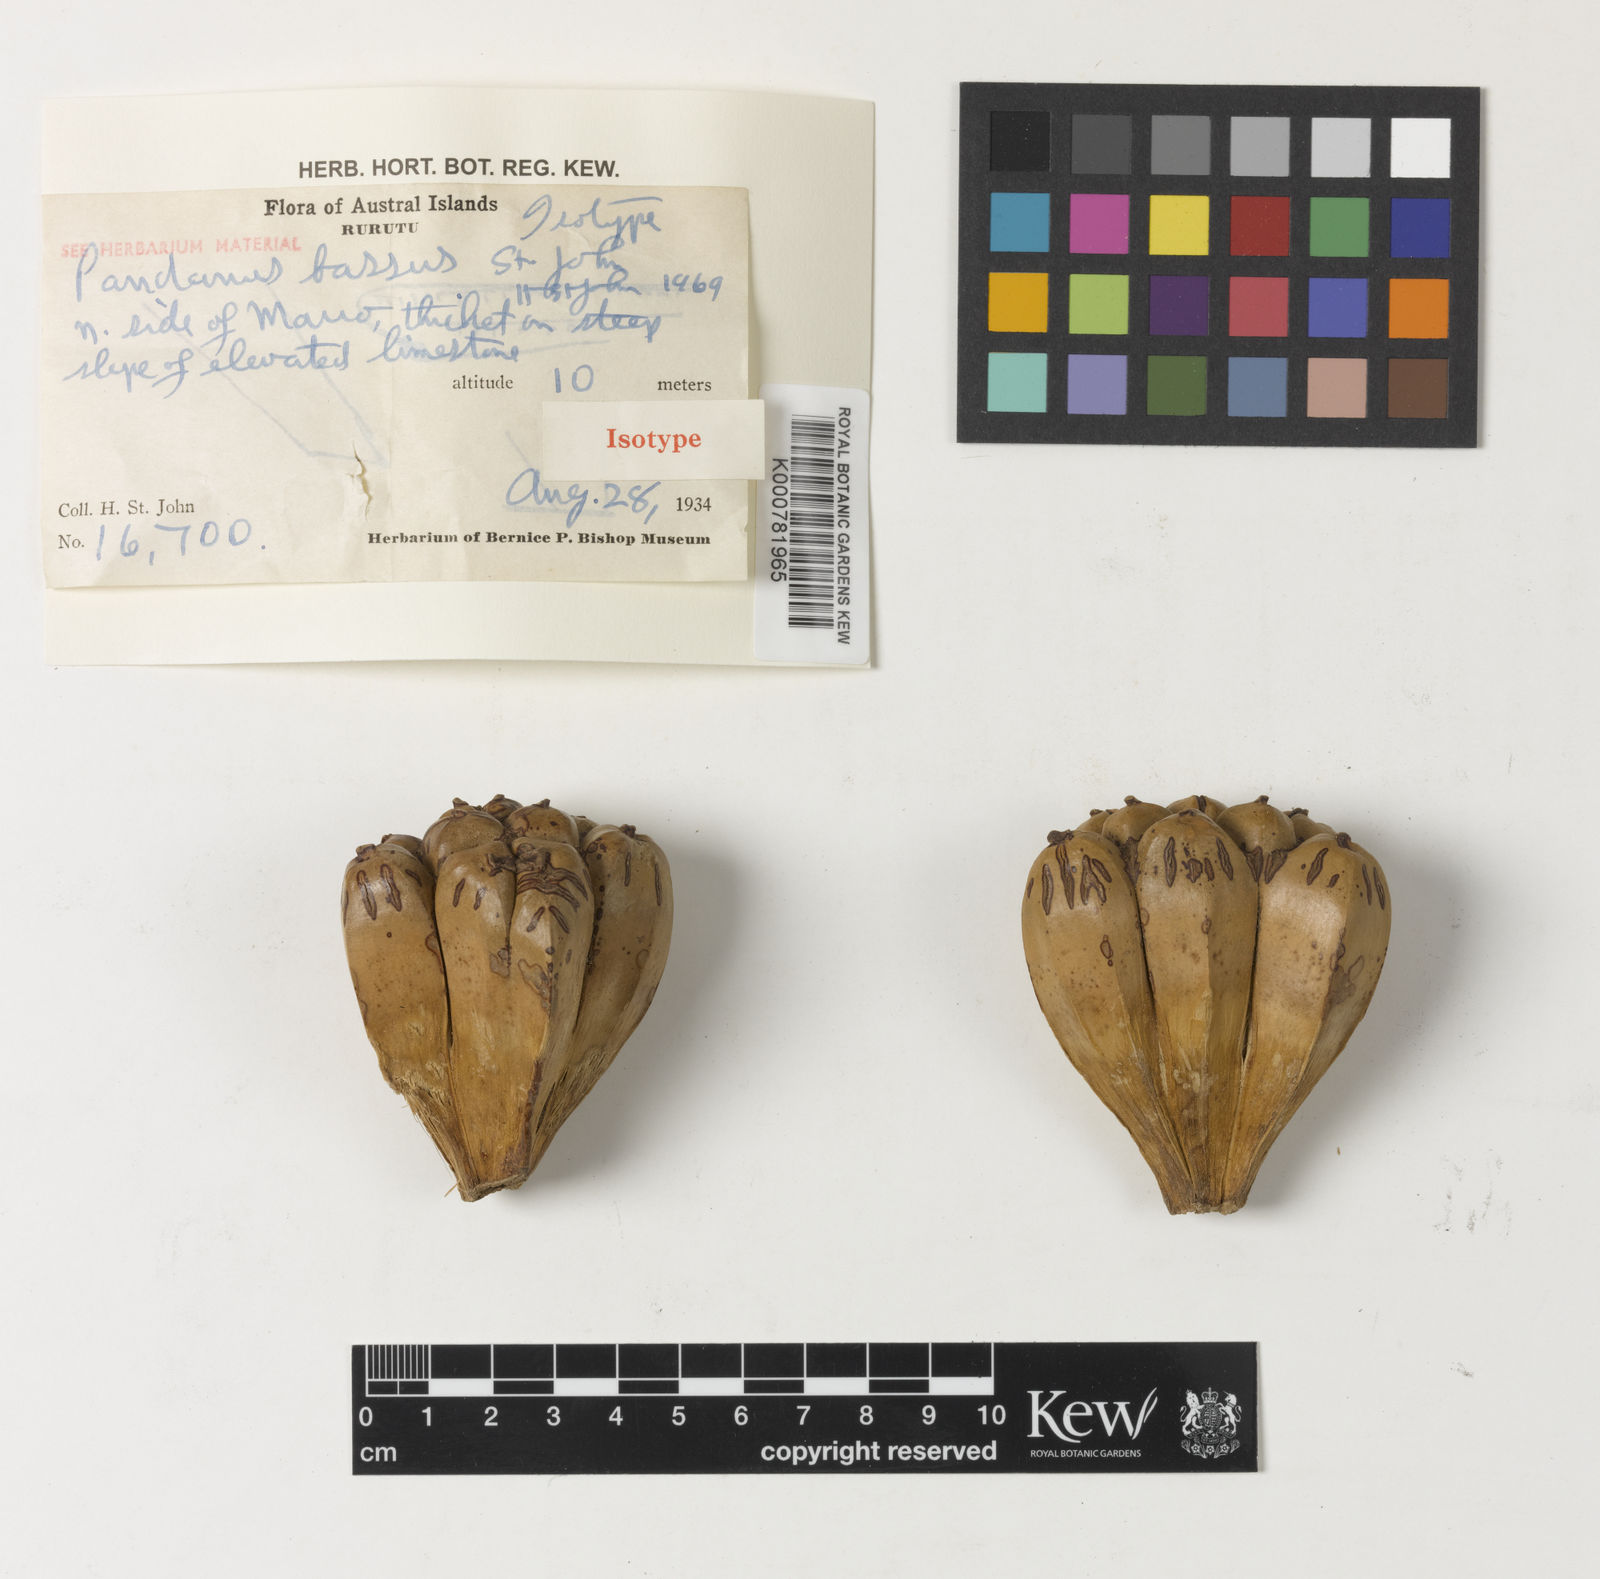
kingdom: Plantae
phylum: Tracheophyta
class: Liliopsida
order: Pandanales
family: Pandanaceae
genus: Pandanus
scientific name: Pandanus tectorius
